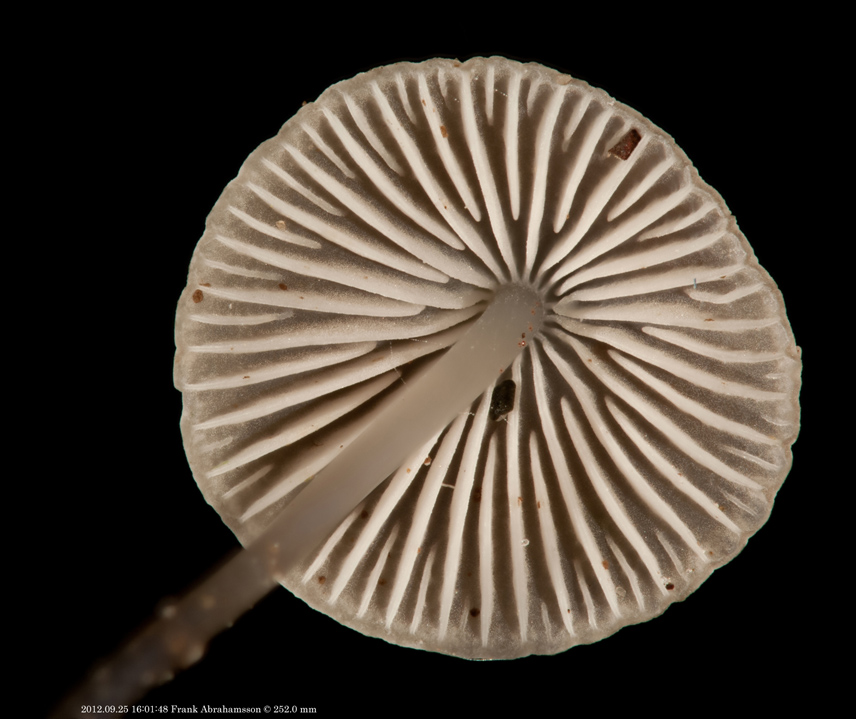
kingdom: Fungi
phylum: Basidiomycota
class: Agaricomycetes
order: Agaricales
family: Mycenaceae
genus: Mycena
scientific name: Mycena vitilis
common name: blankstokket huesvamp
